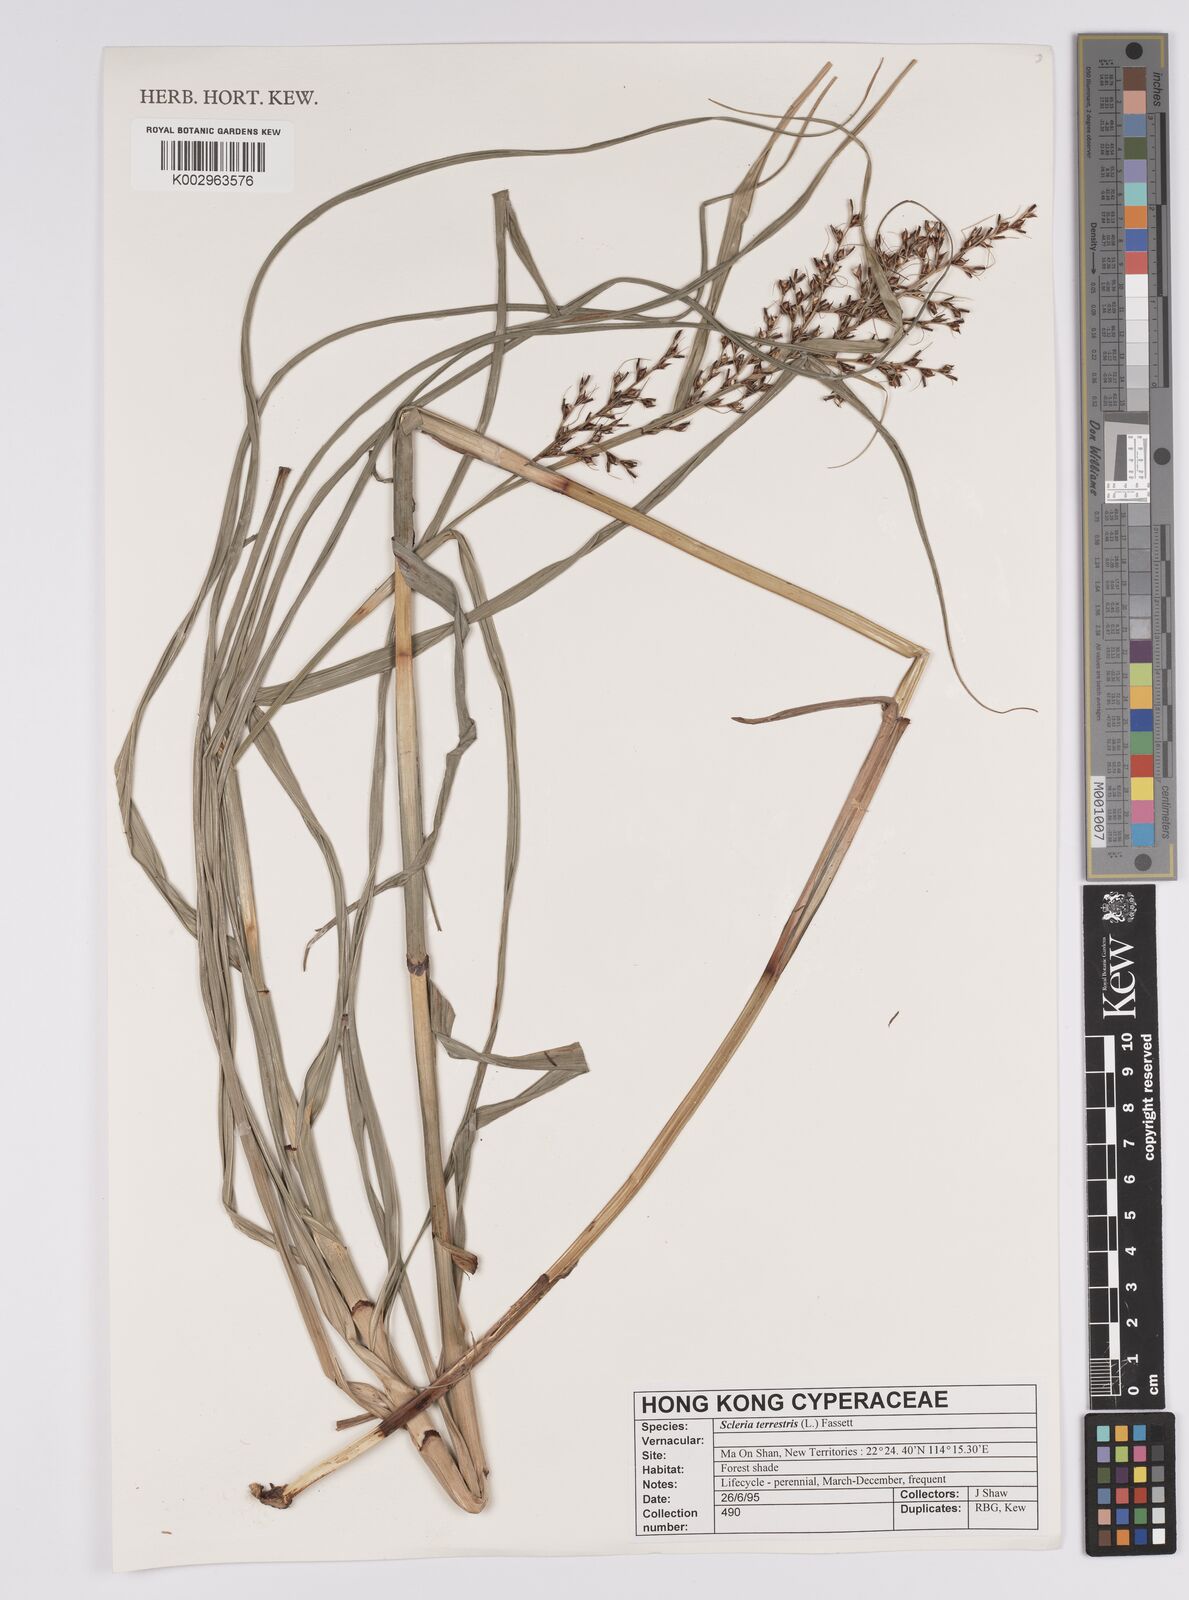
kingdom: Plantae
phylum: Tracheophyta
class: Liliopsida
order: Poales
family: Cyperaceae
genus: Scleria
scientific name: Scleria terrestris
